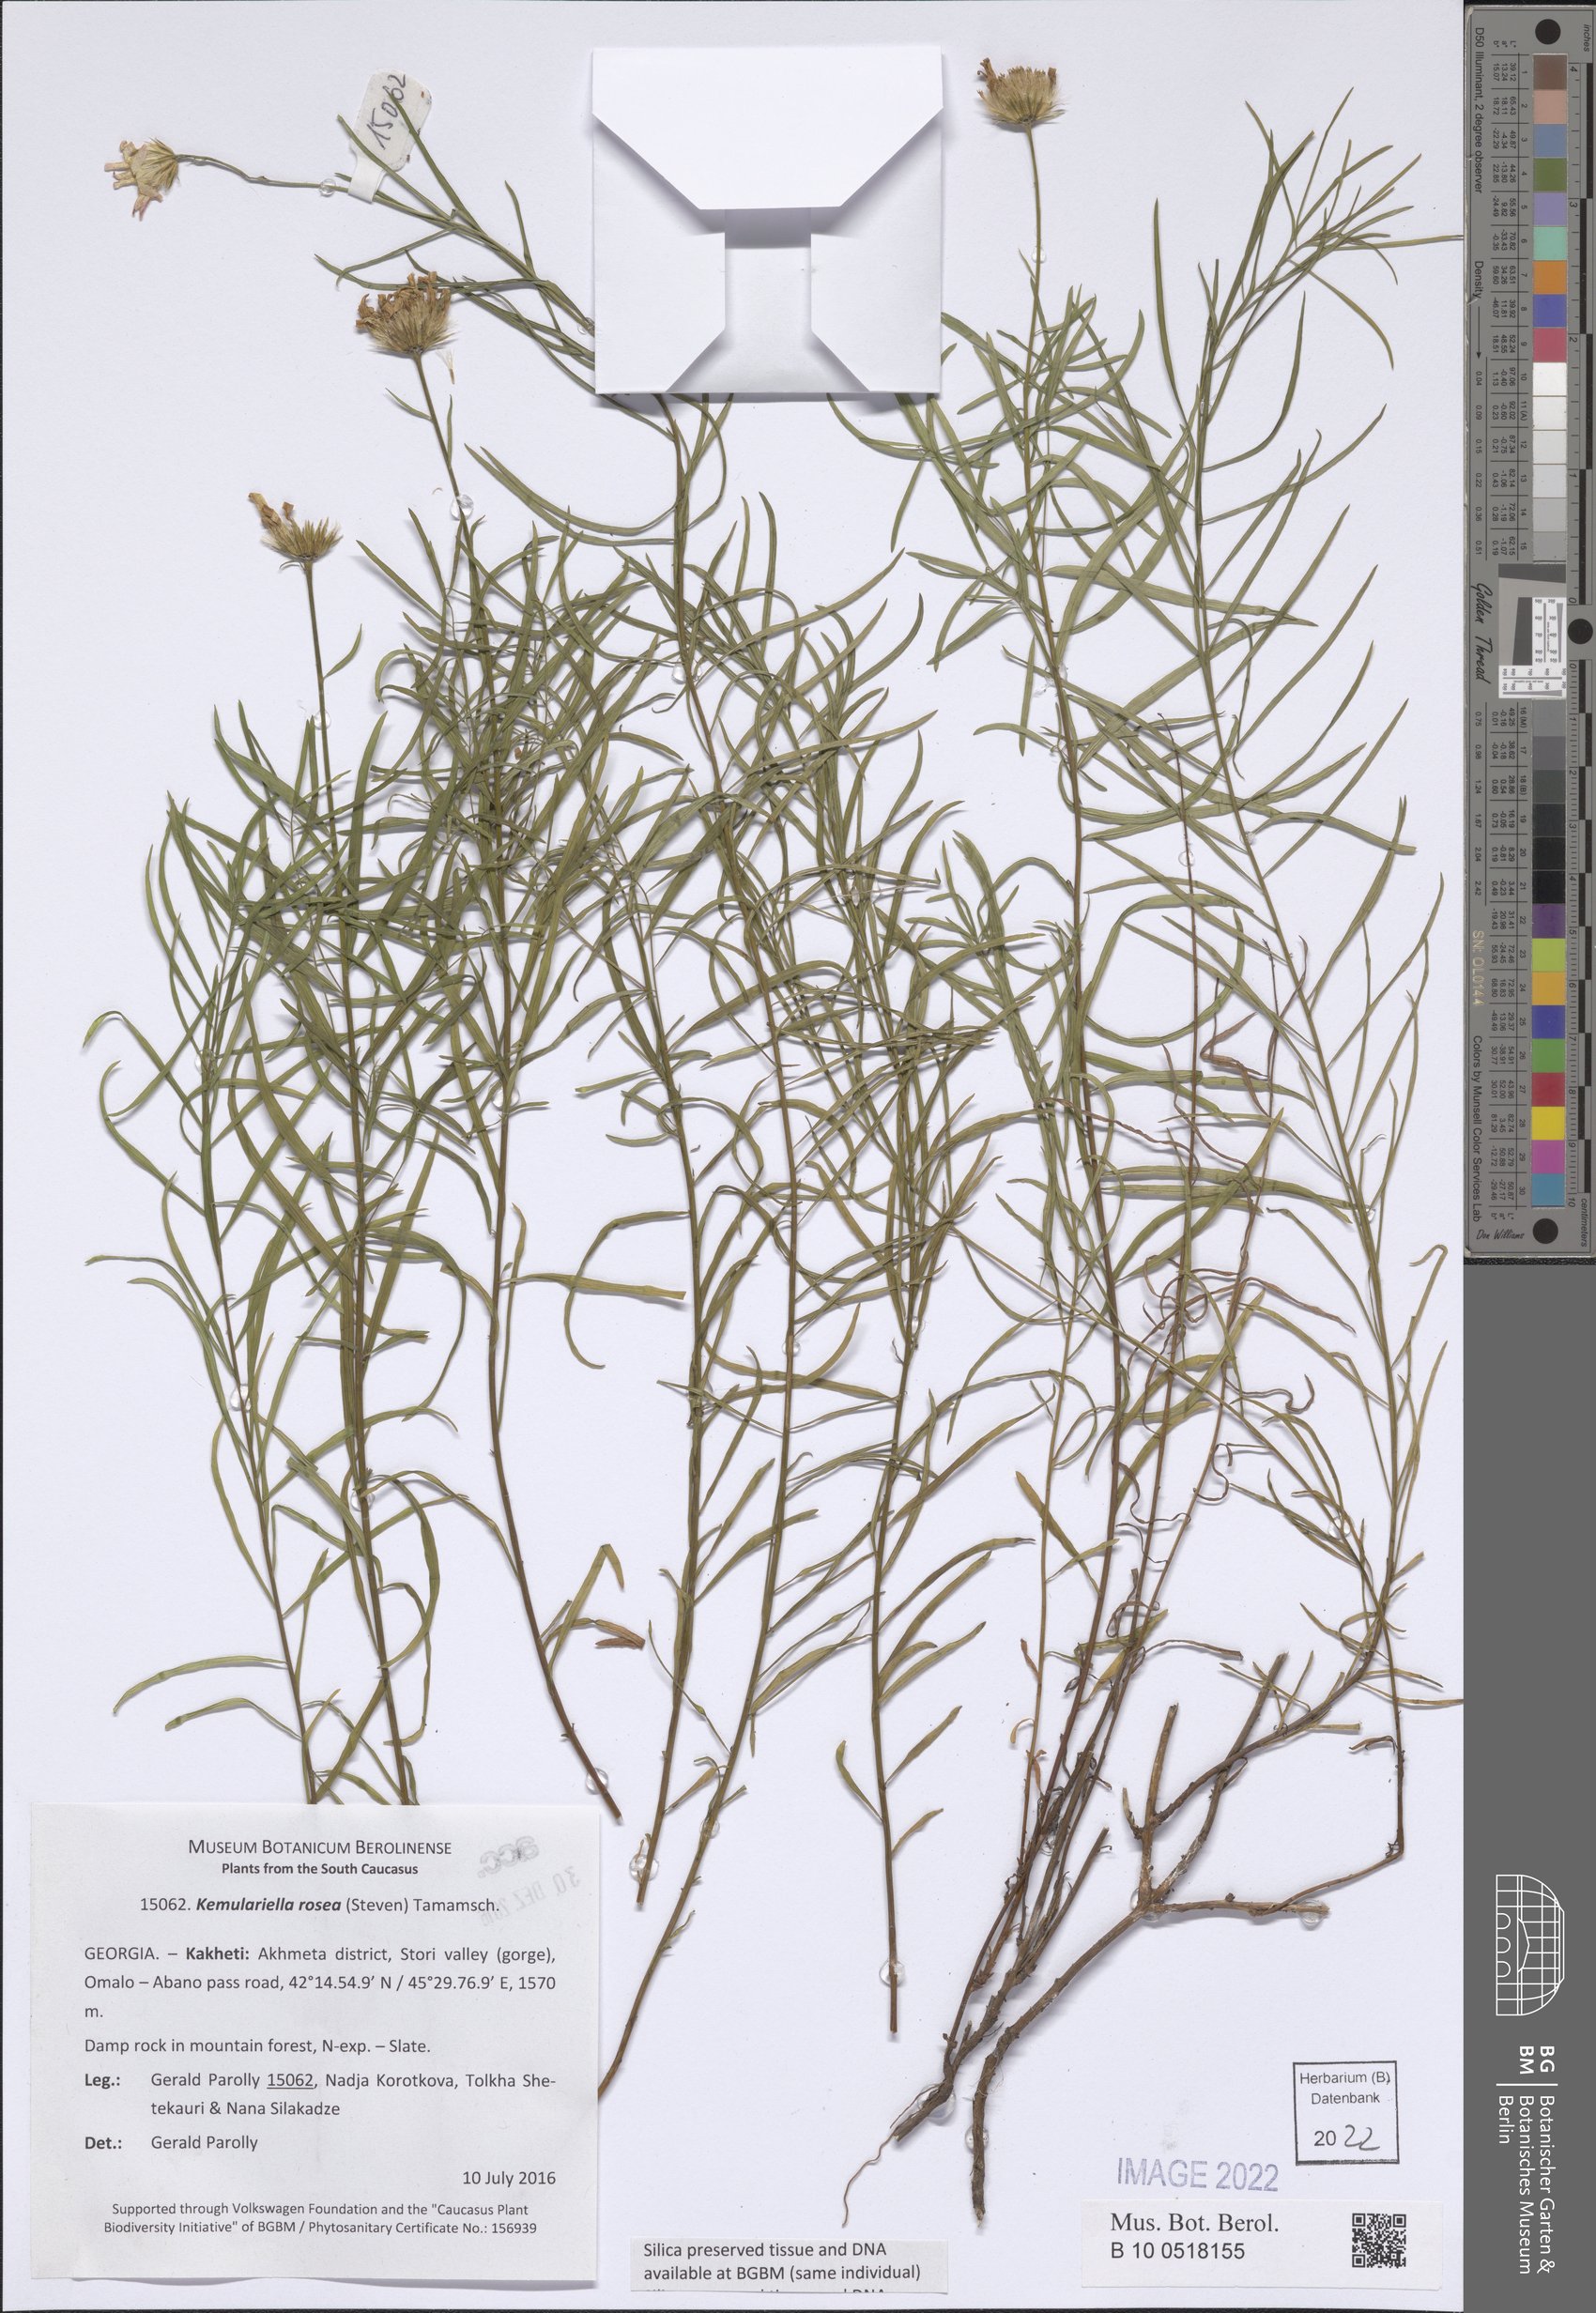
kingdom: Plantae
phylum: Tracheophyta
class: Magnoliopsida
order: Asterales
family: Asteraceae
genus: Kemulariella
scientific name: Kemulariella rosea
